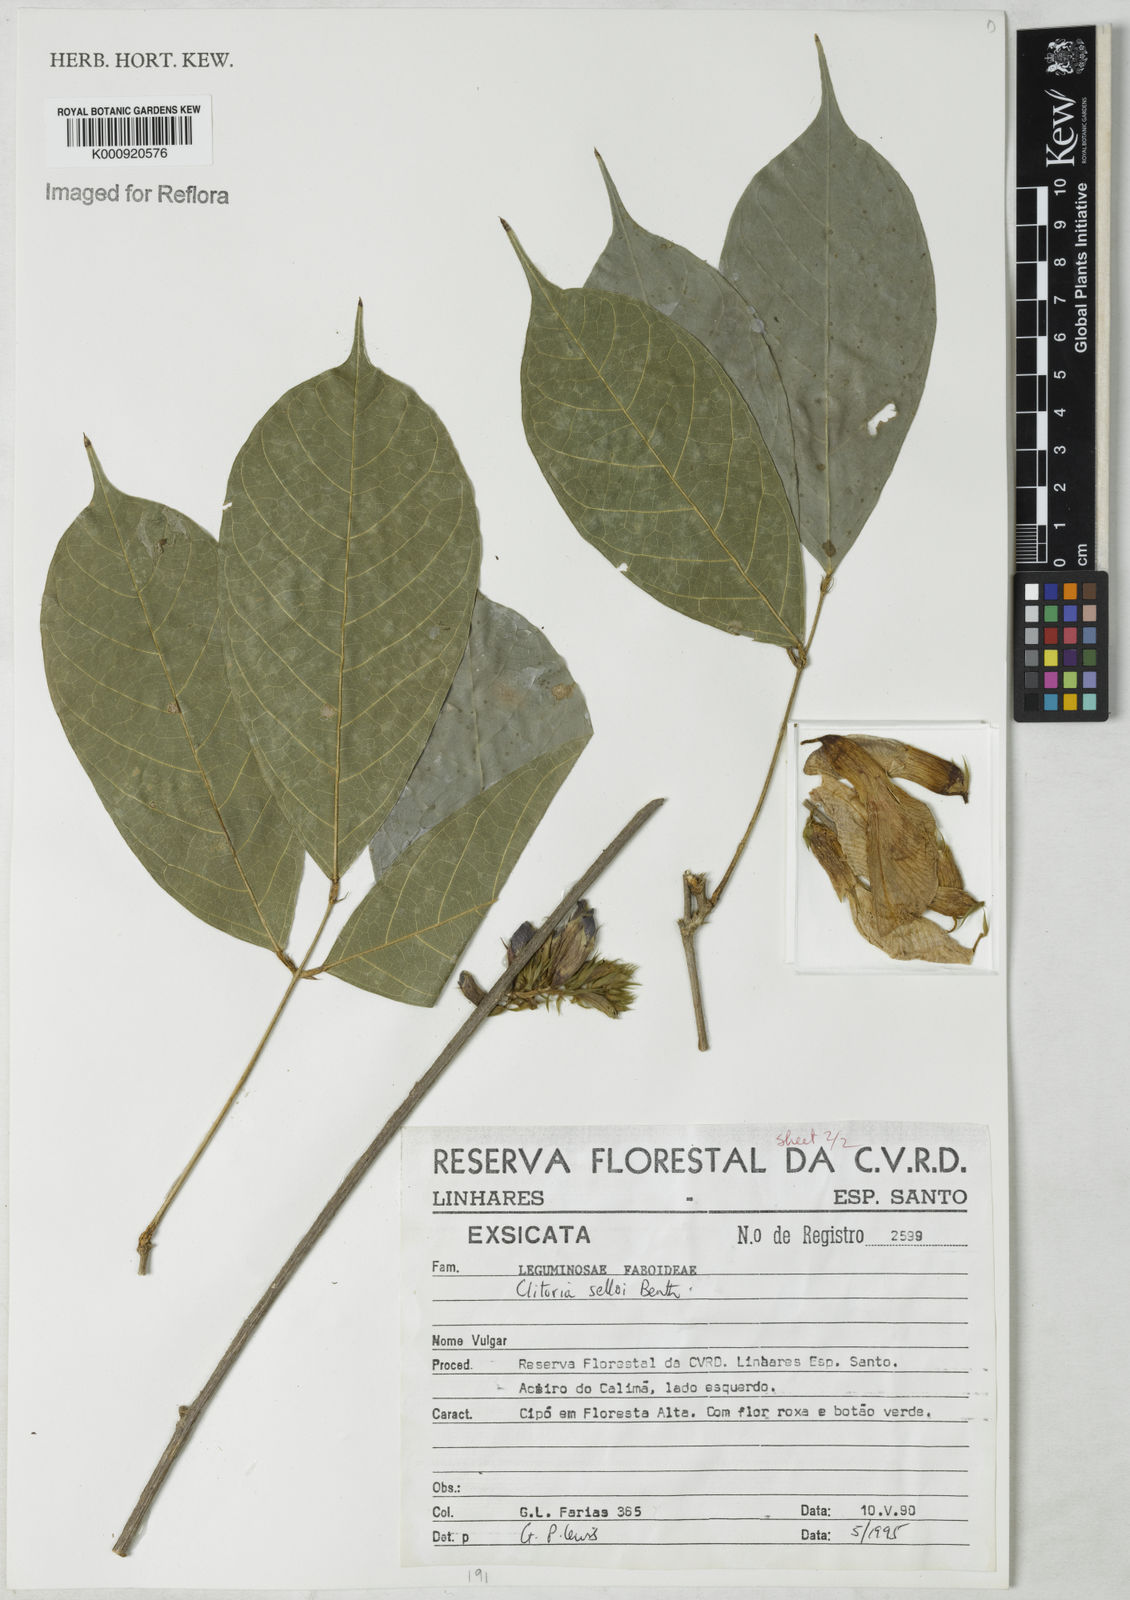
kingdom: Plantae
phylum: Tracheophyta
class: Magnoliopsida
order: Fabales
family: Fabaceae
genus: Clitoria
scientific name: Clitoria selloi
